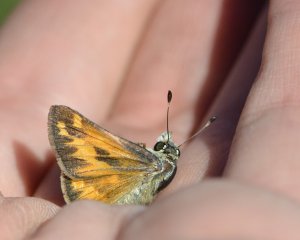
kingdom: Animalia
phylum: Arthropoda
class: Insecta
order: Lepidoptera
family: Hesperiidae
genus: Hesperia
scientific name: Hesperia juba
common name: Juba Skipper
